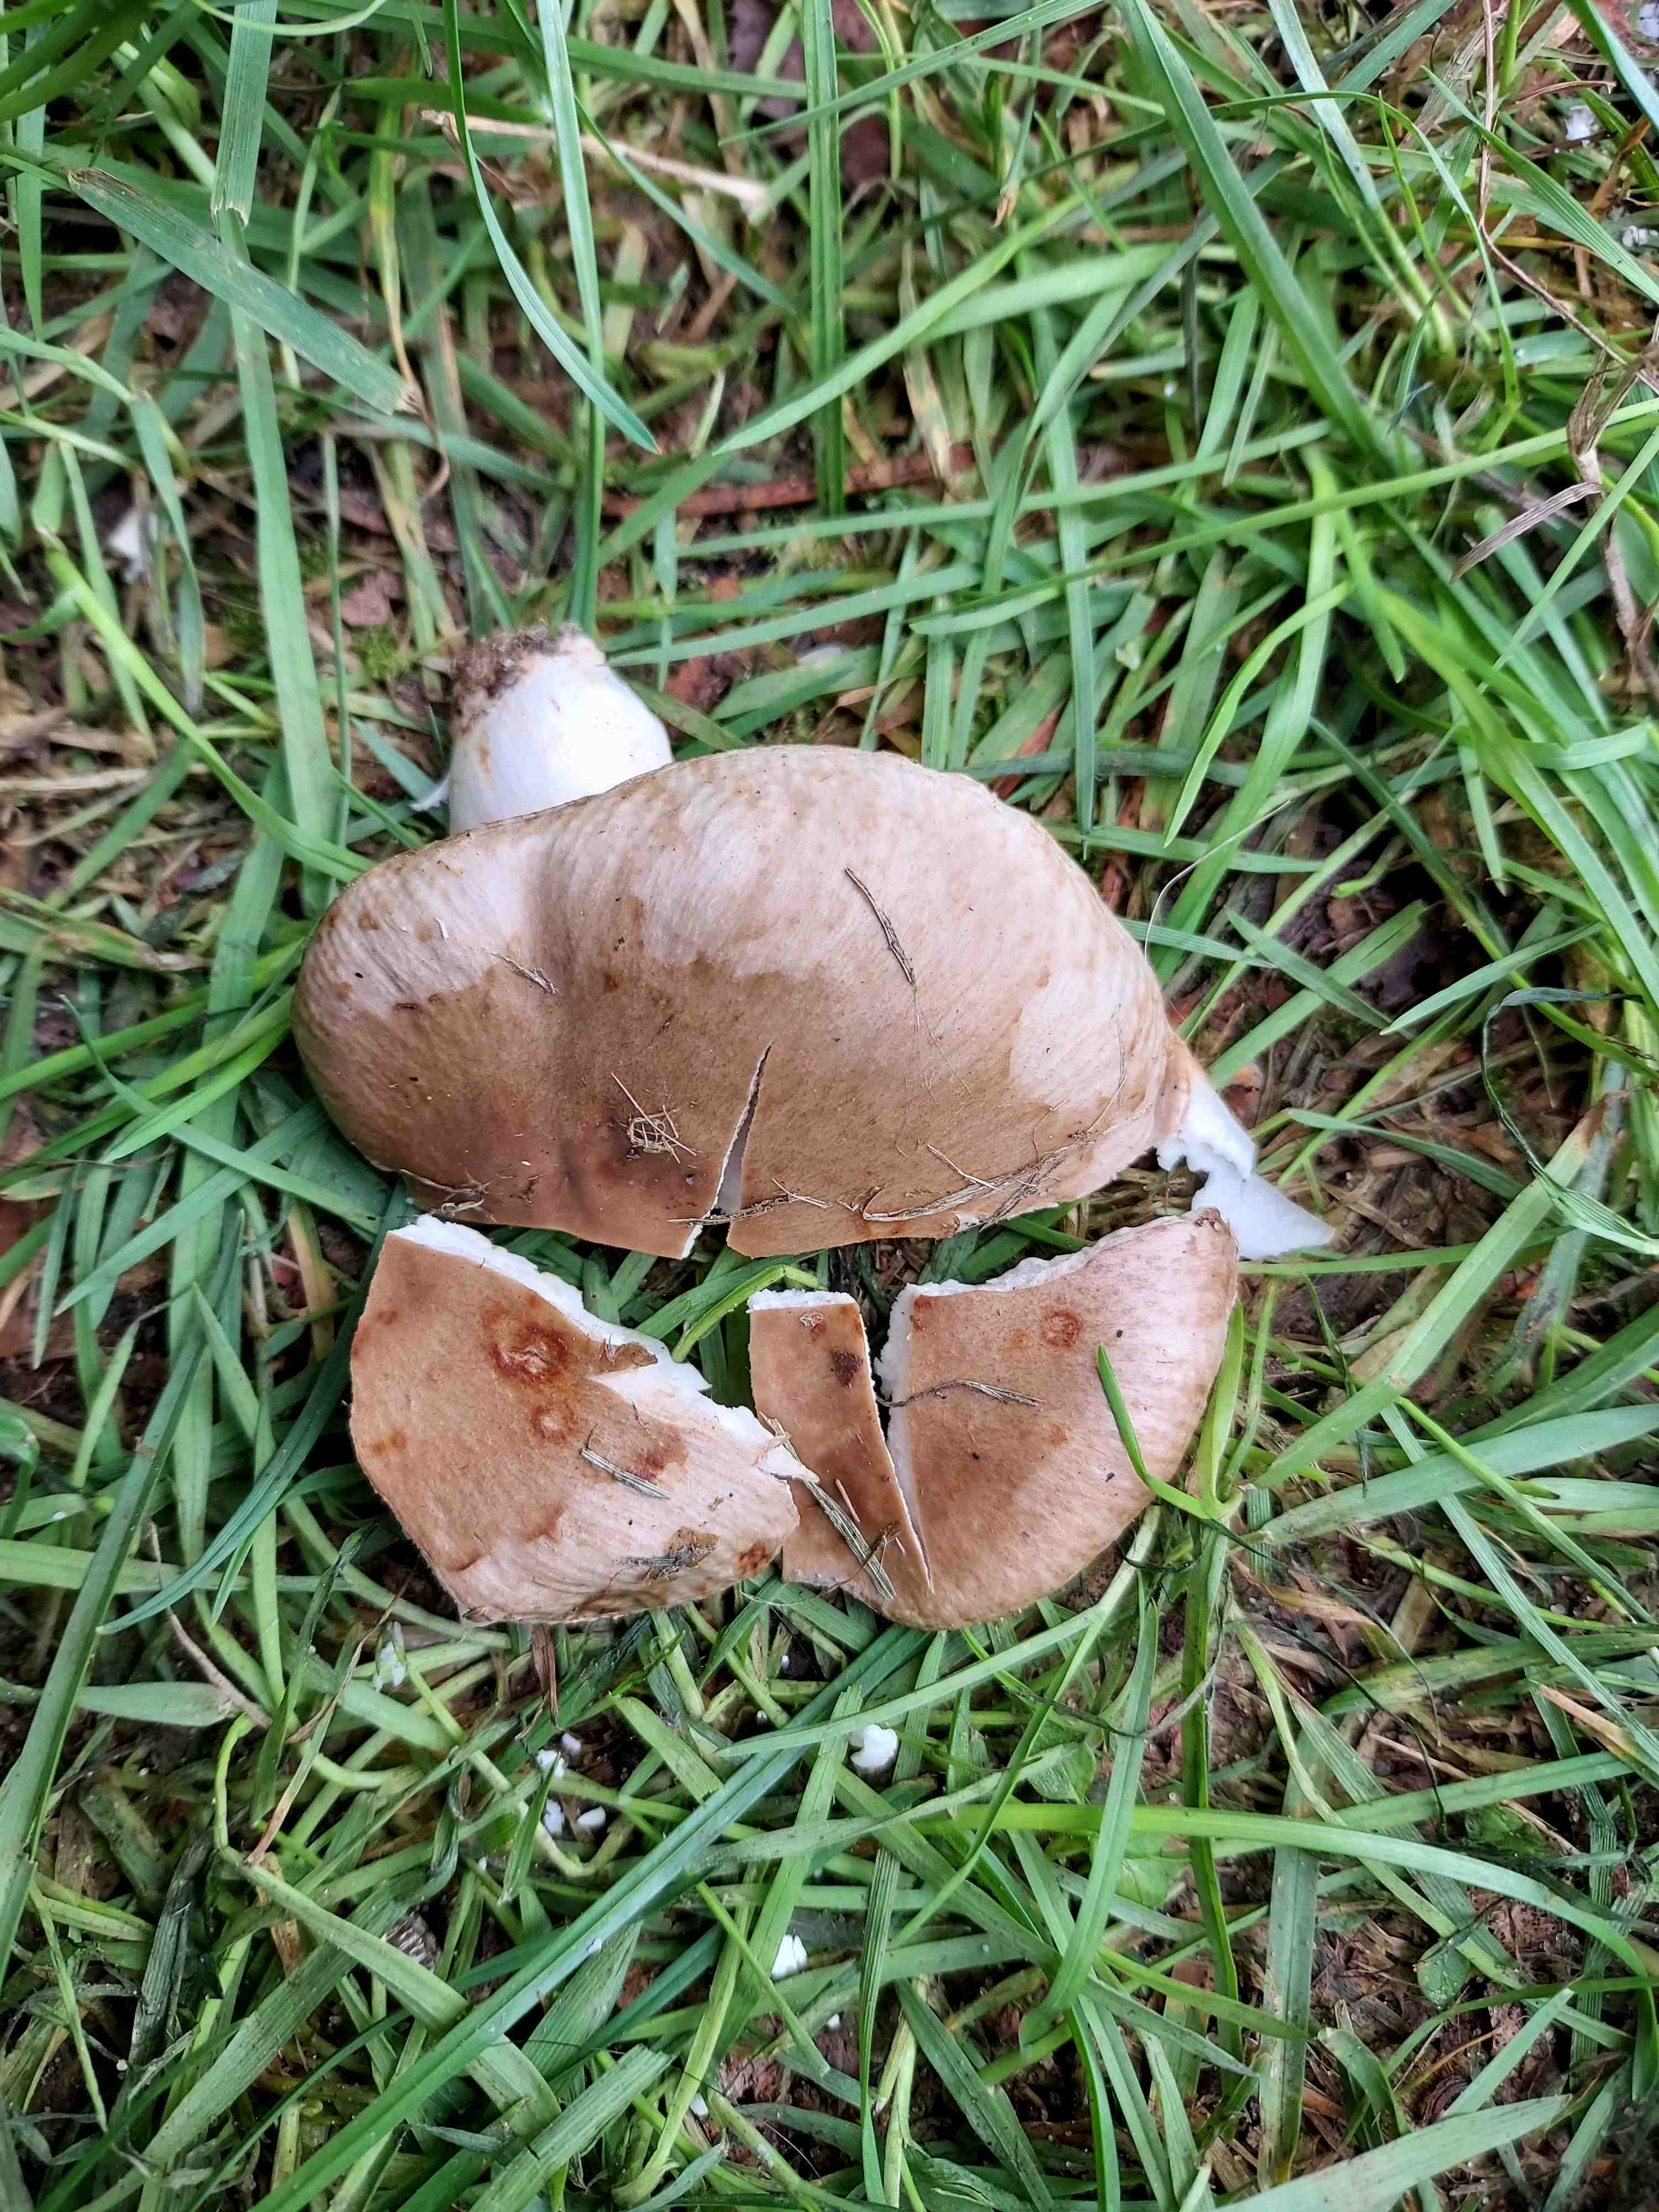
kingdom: Fungi
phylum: Basidiomycota
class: Agaricomycetes
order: Russulales
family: Russulaceae
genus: Russula
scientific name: Russula
